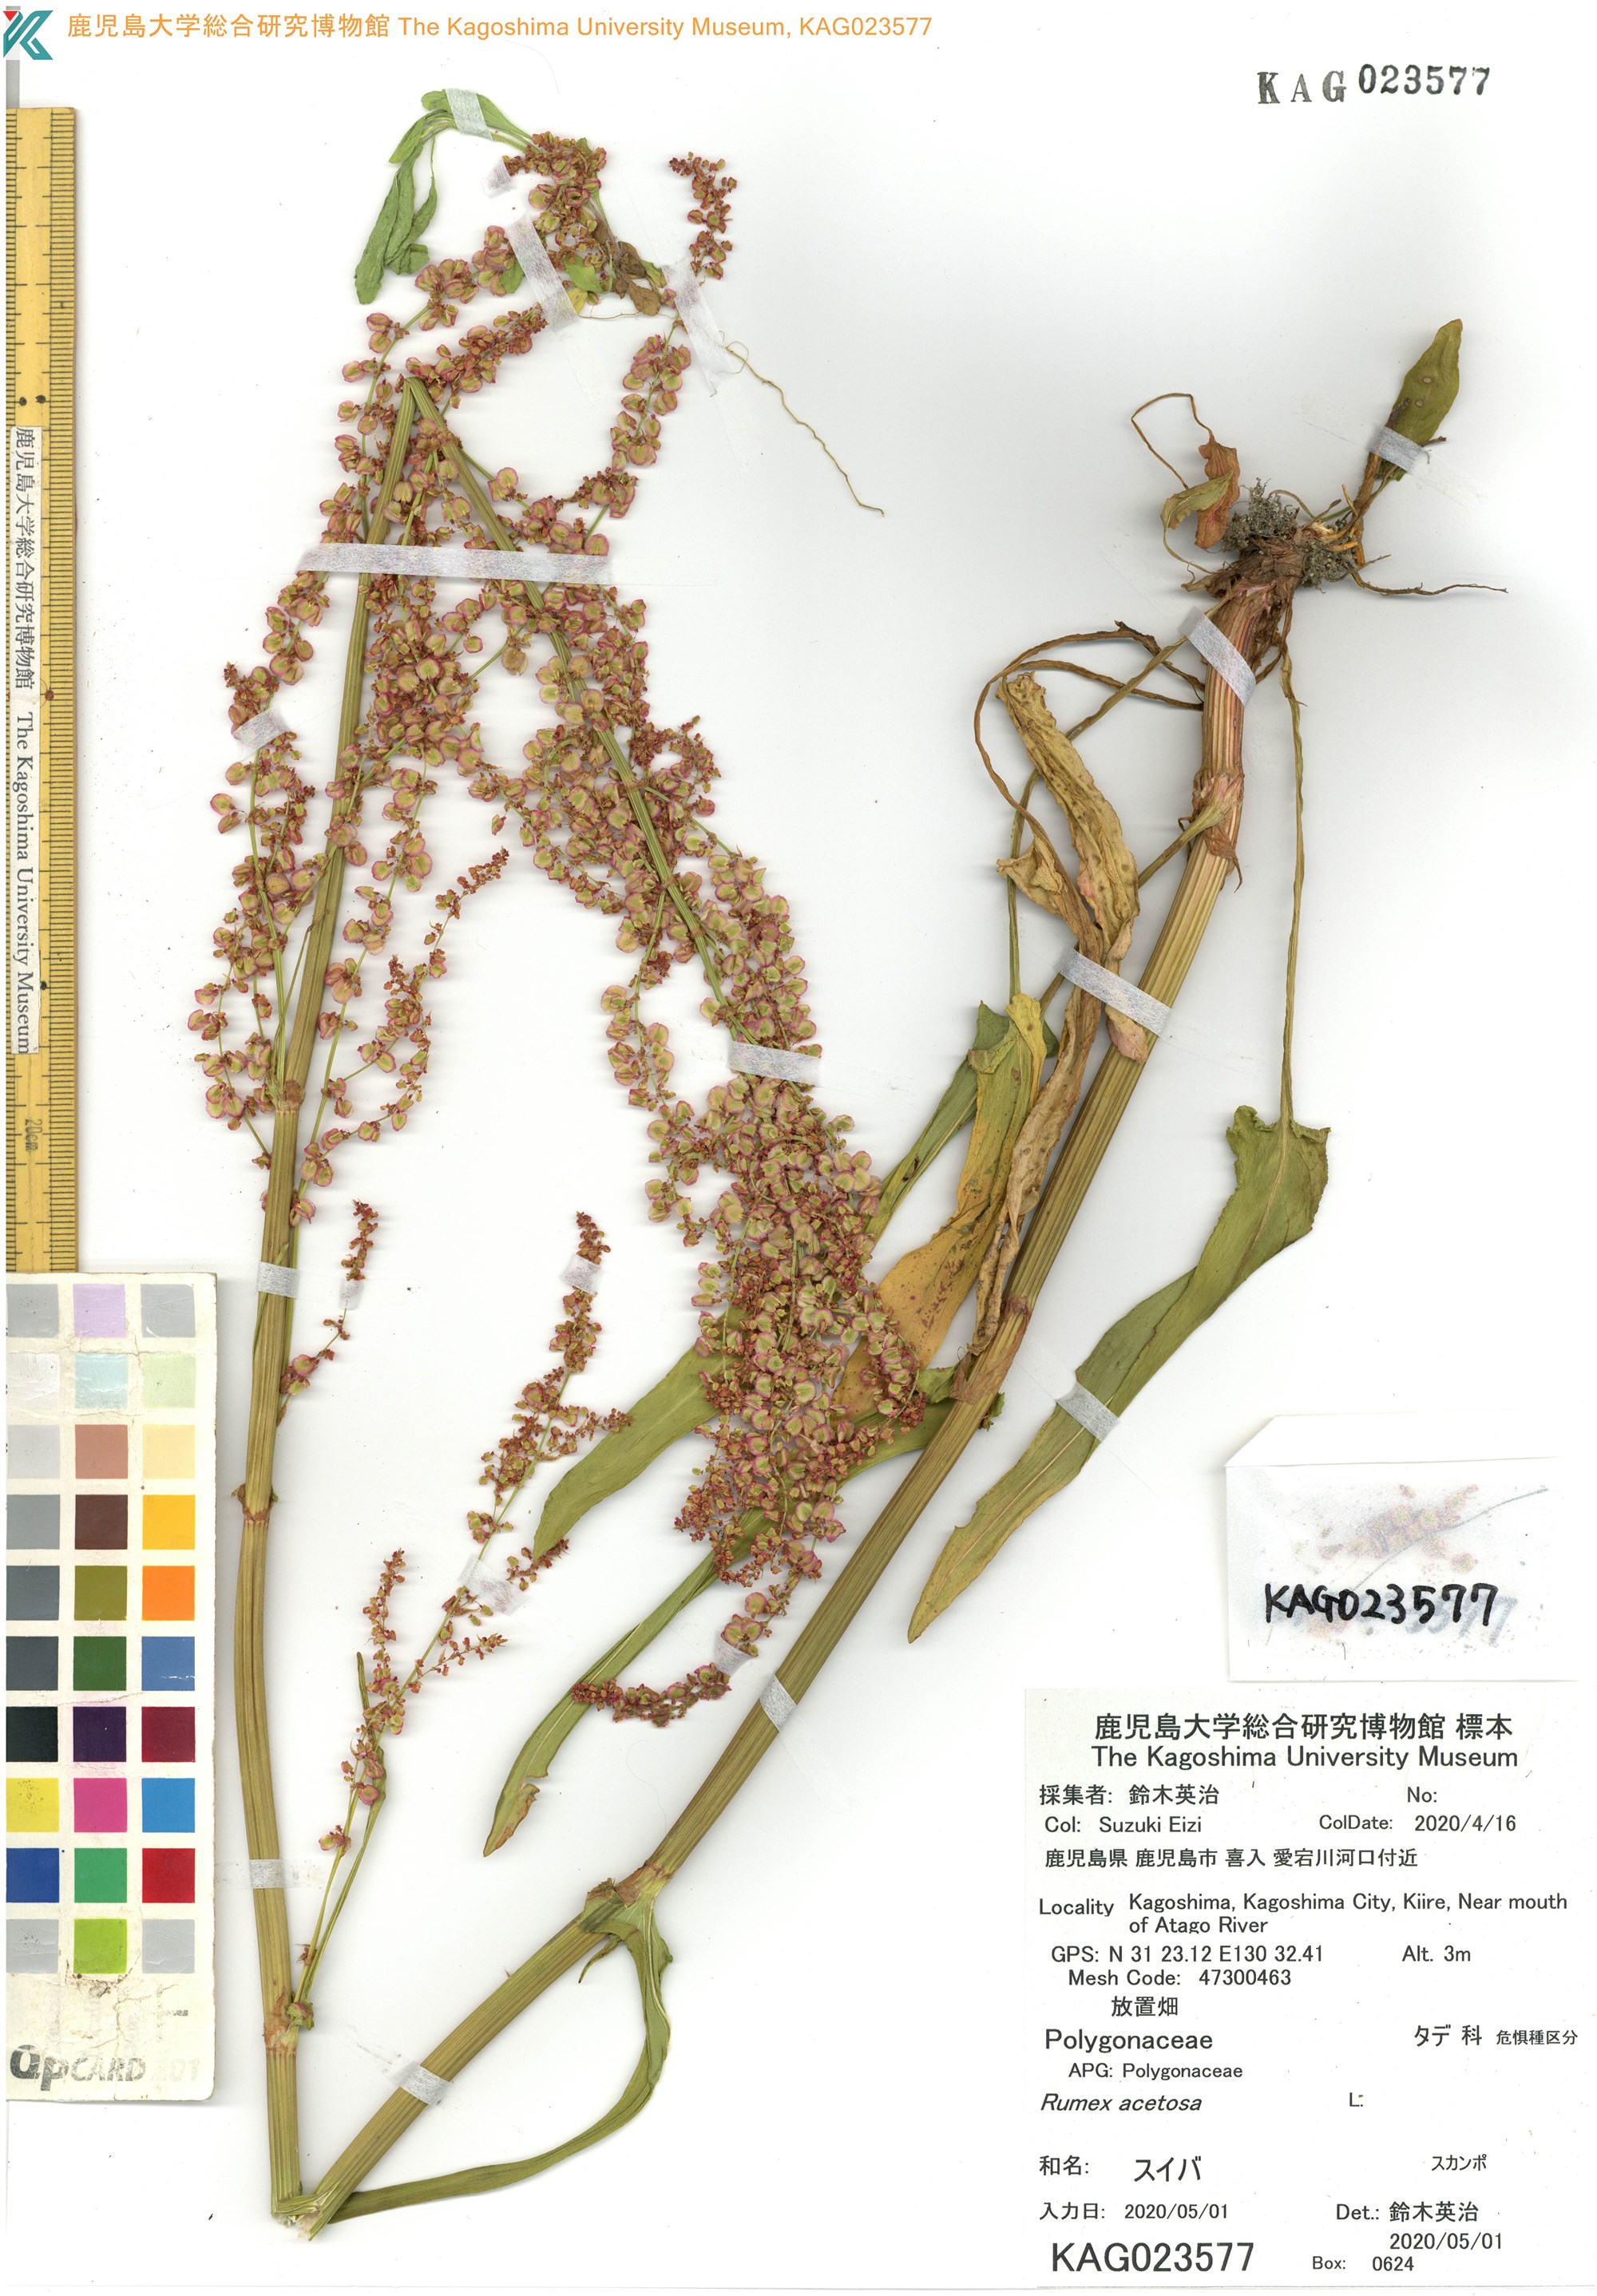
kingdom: Plantae
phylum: Tracheophyta
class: Magnoliopsida
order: Caryophyllales
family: Polygonaceae
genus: Rumex
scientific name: Rumex acetosa
